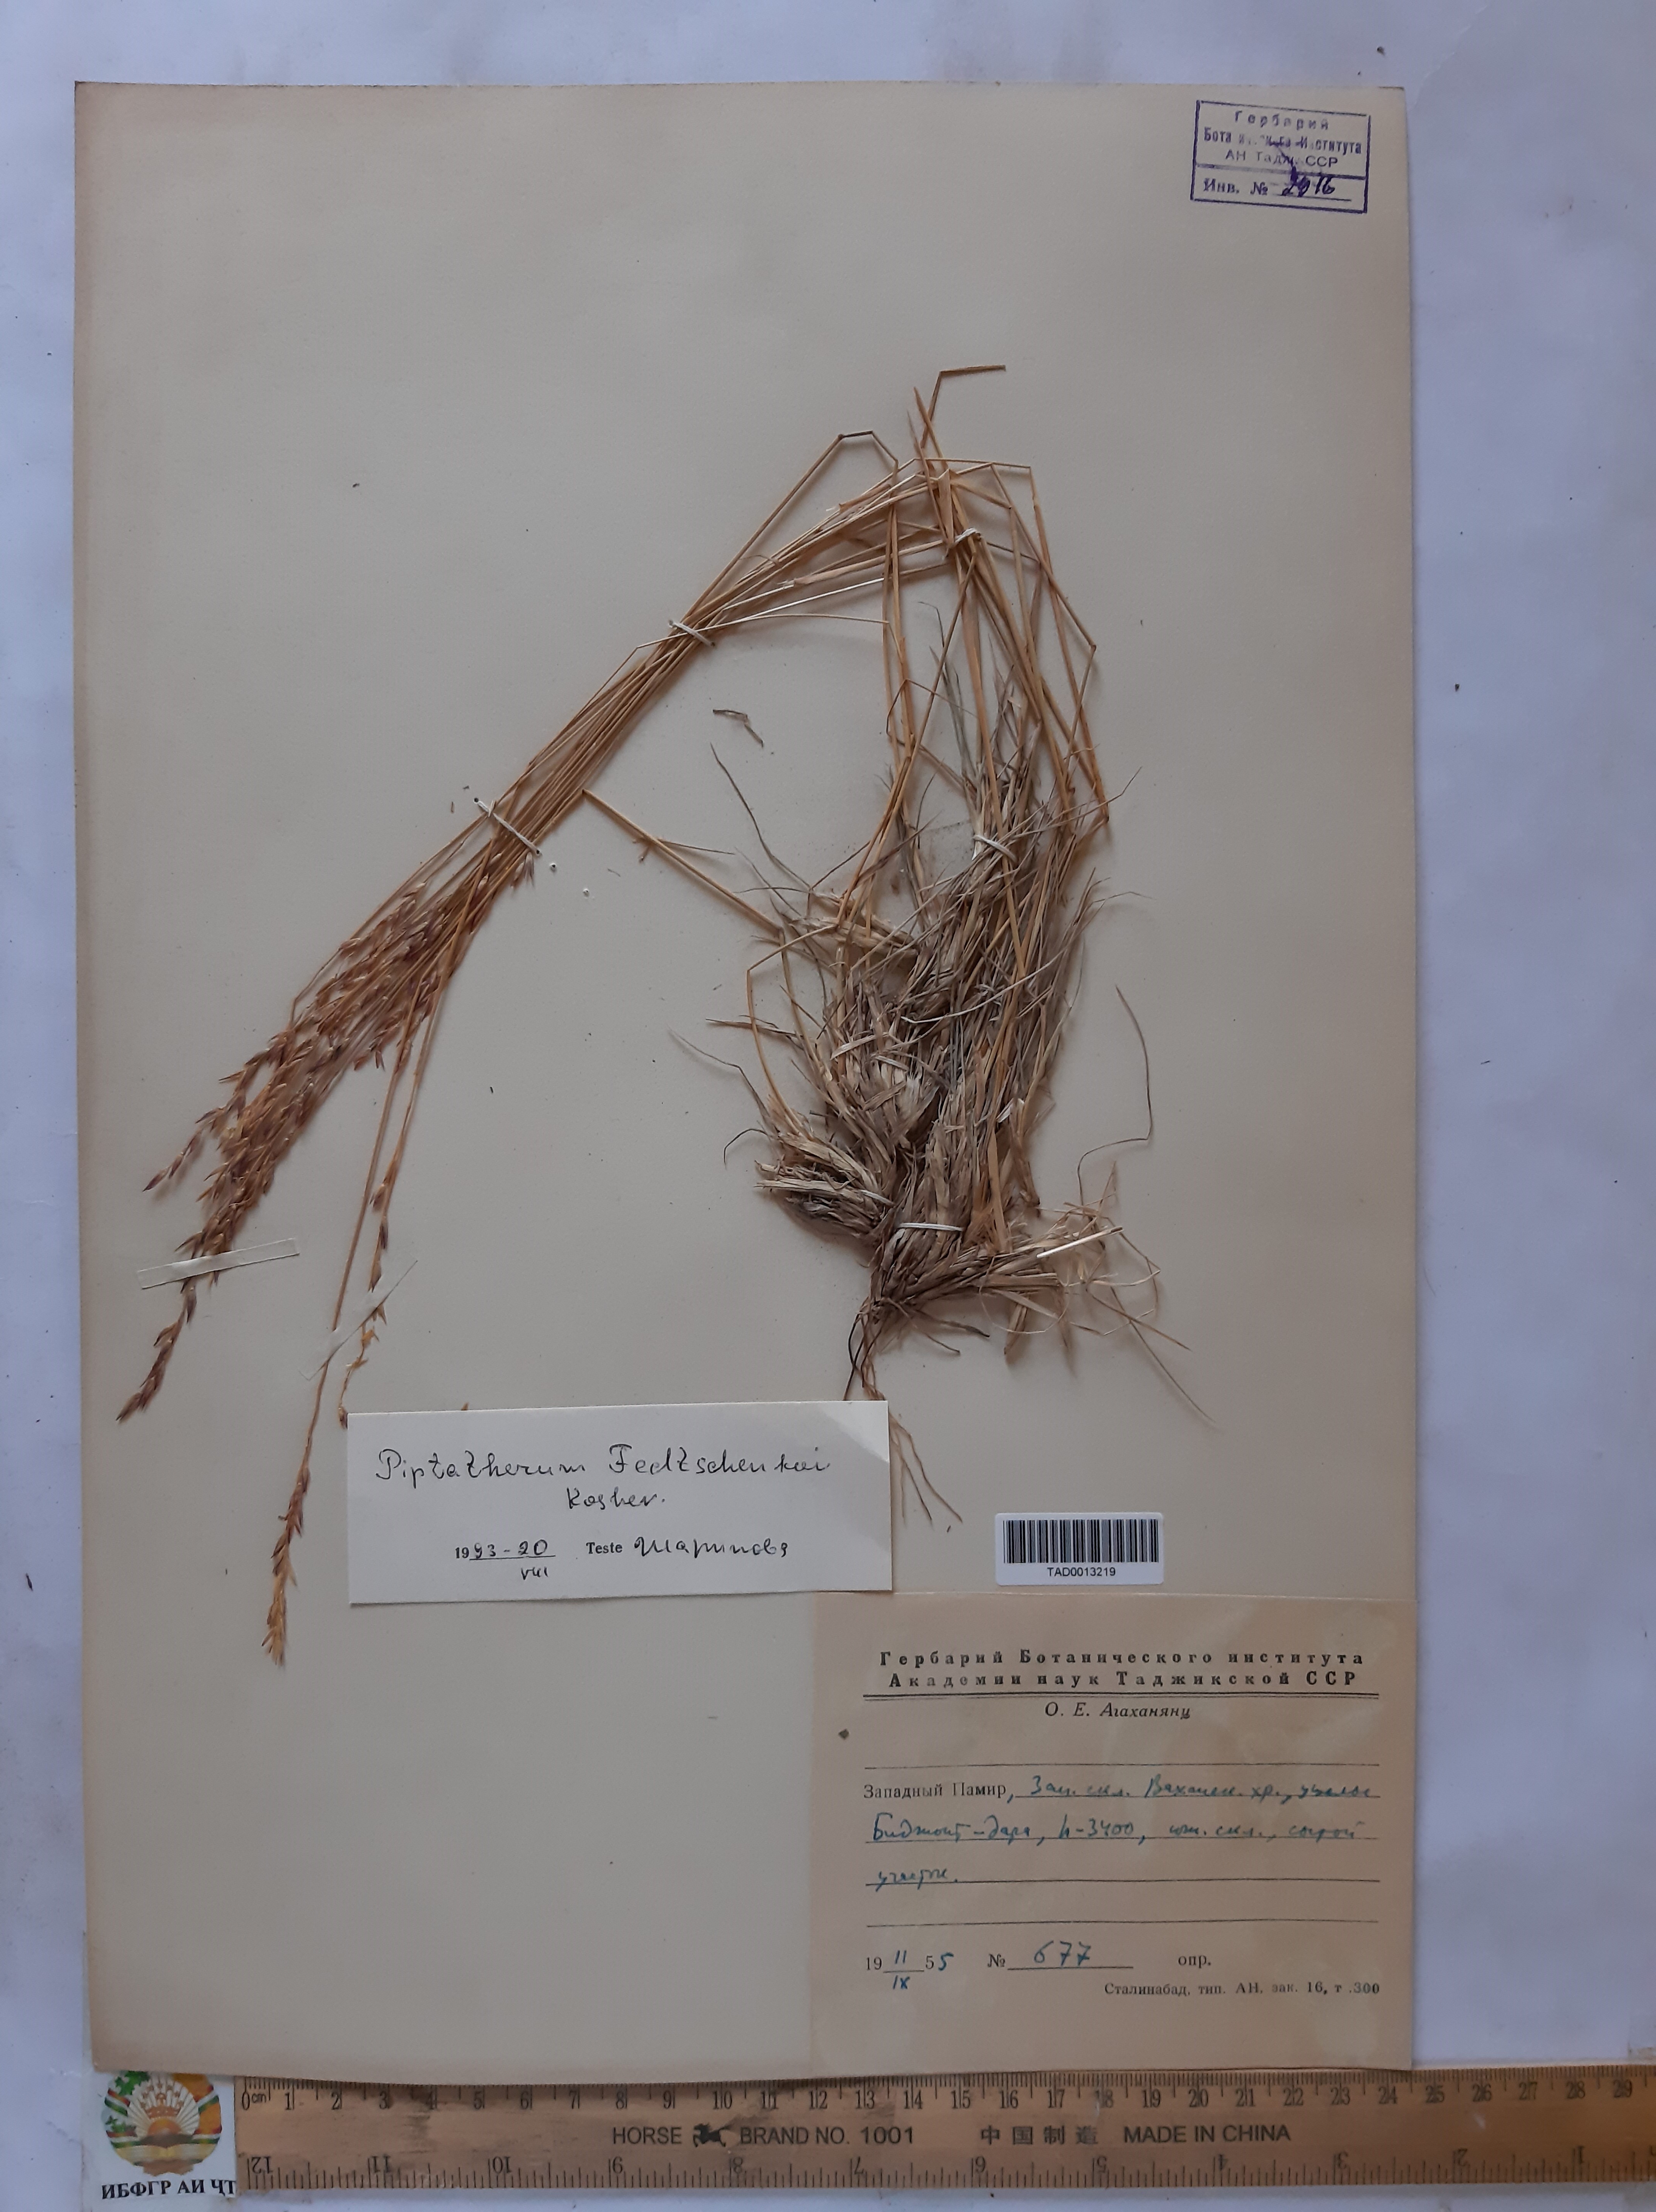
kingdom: Plantae
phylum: Tracheophyta
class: Liliopsida
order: Poales
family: Poaceae
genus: Piptatherum
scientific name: Piptatherum sogdianum
